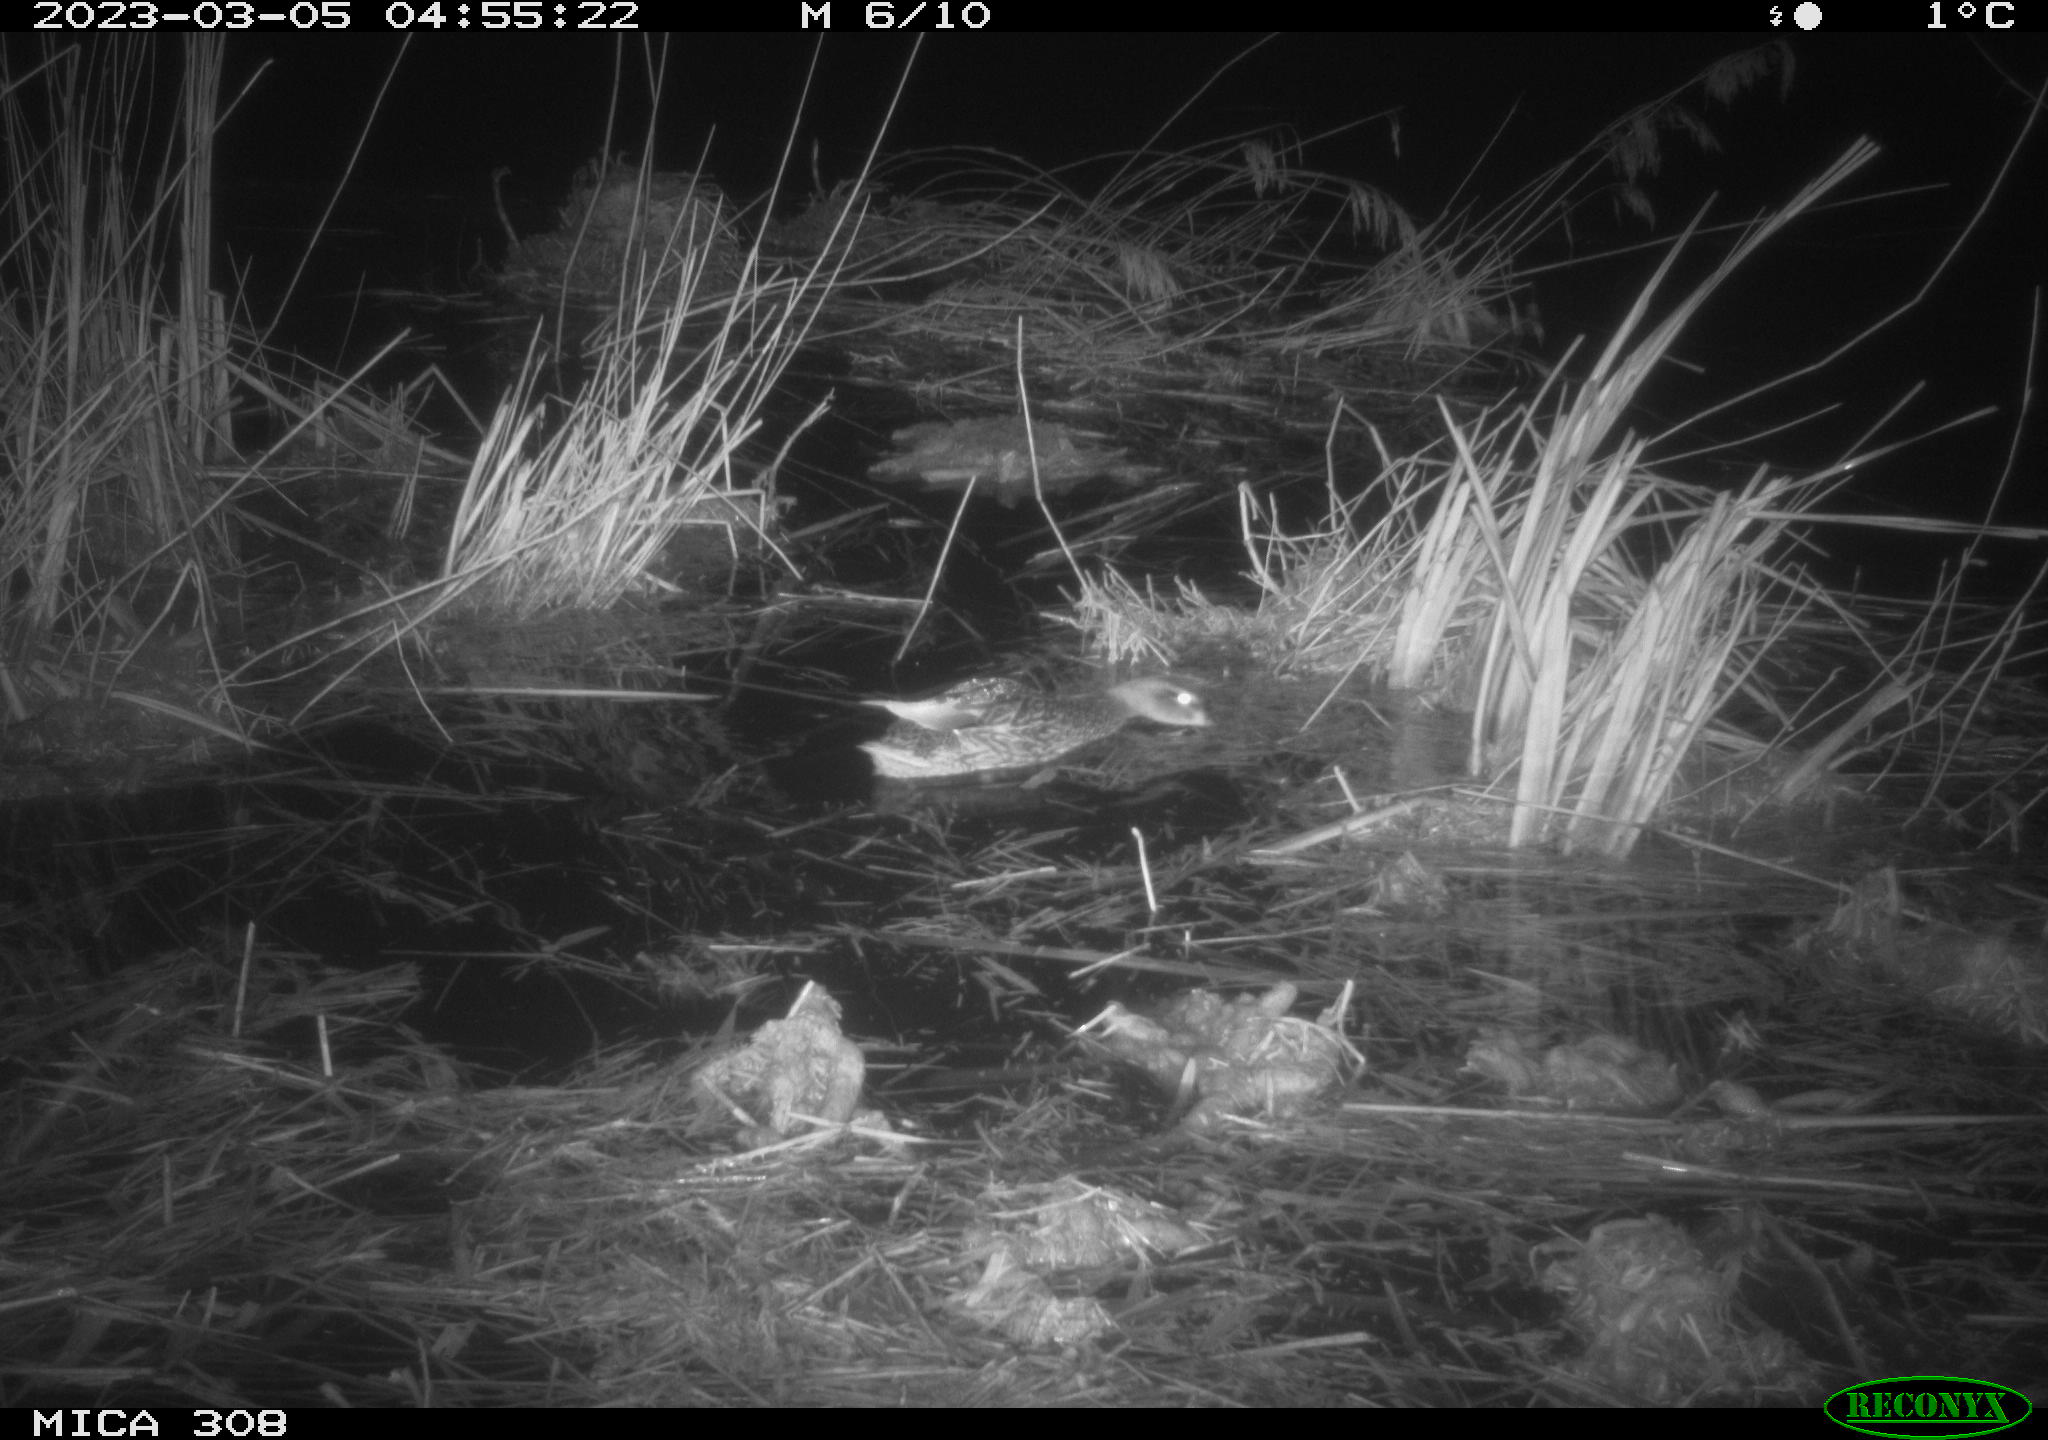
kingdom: Animalia
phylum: Chordata
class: Aves
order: Anseriformes
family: Anatidae
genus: Anas
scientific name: Anas
